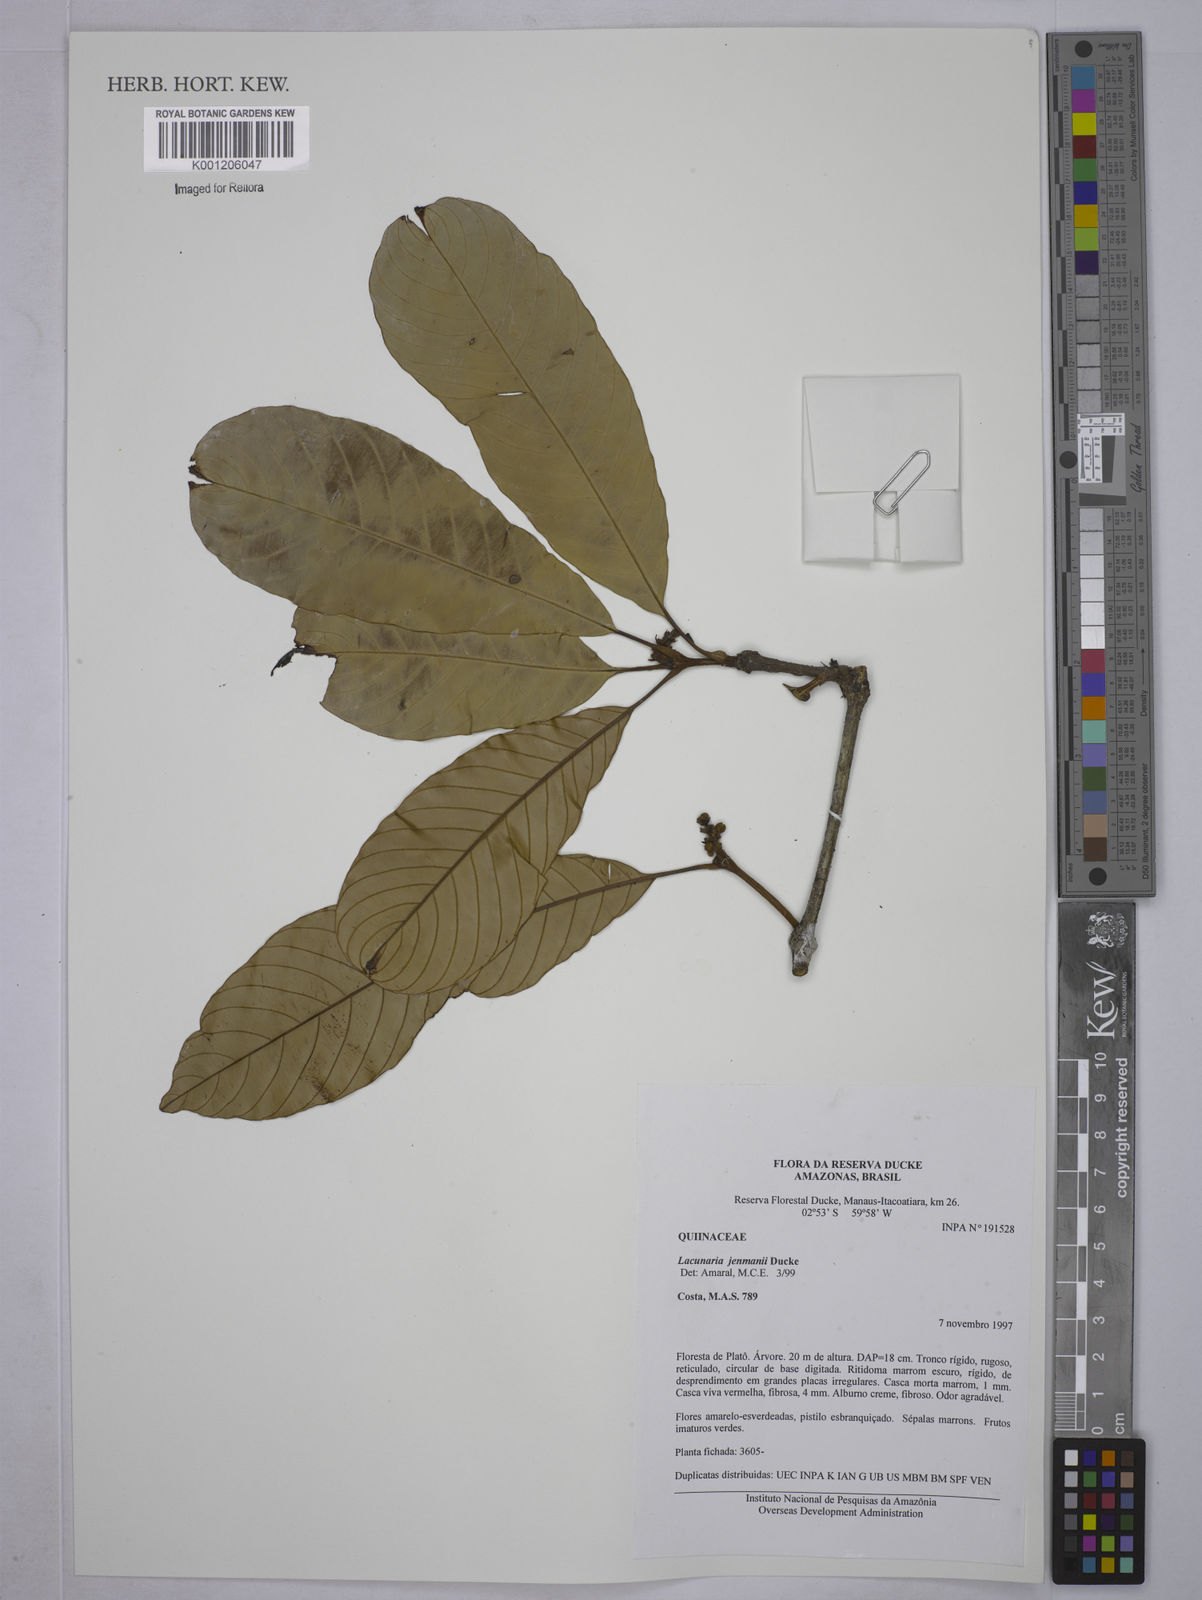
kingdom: Plantae
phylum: Tracheophyta
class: Magnoliopsida
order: Malpighiales
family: Quiinaceae
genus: Lacunaria
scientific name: Lacunaria jenmanii
